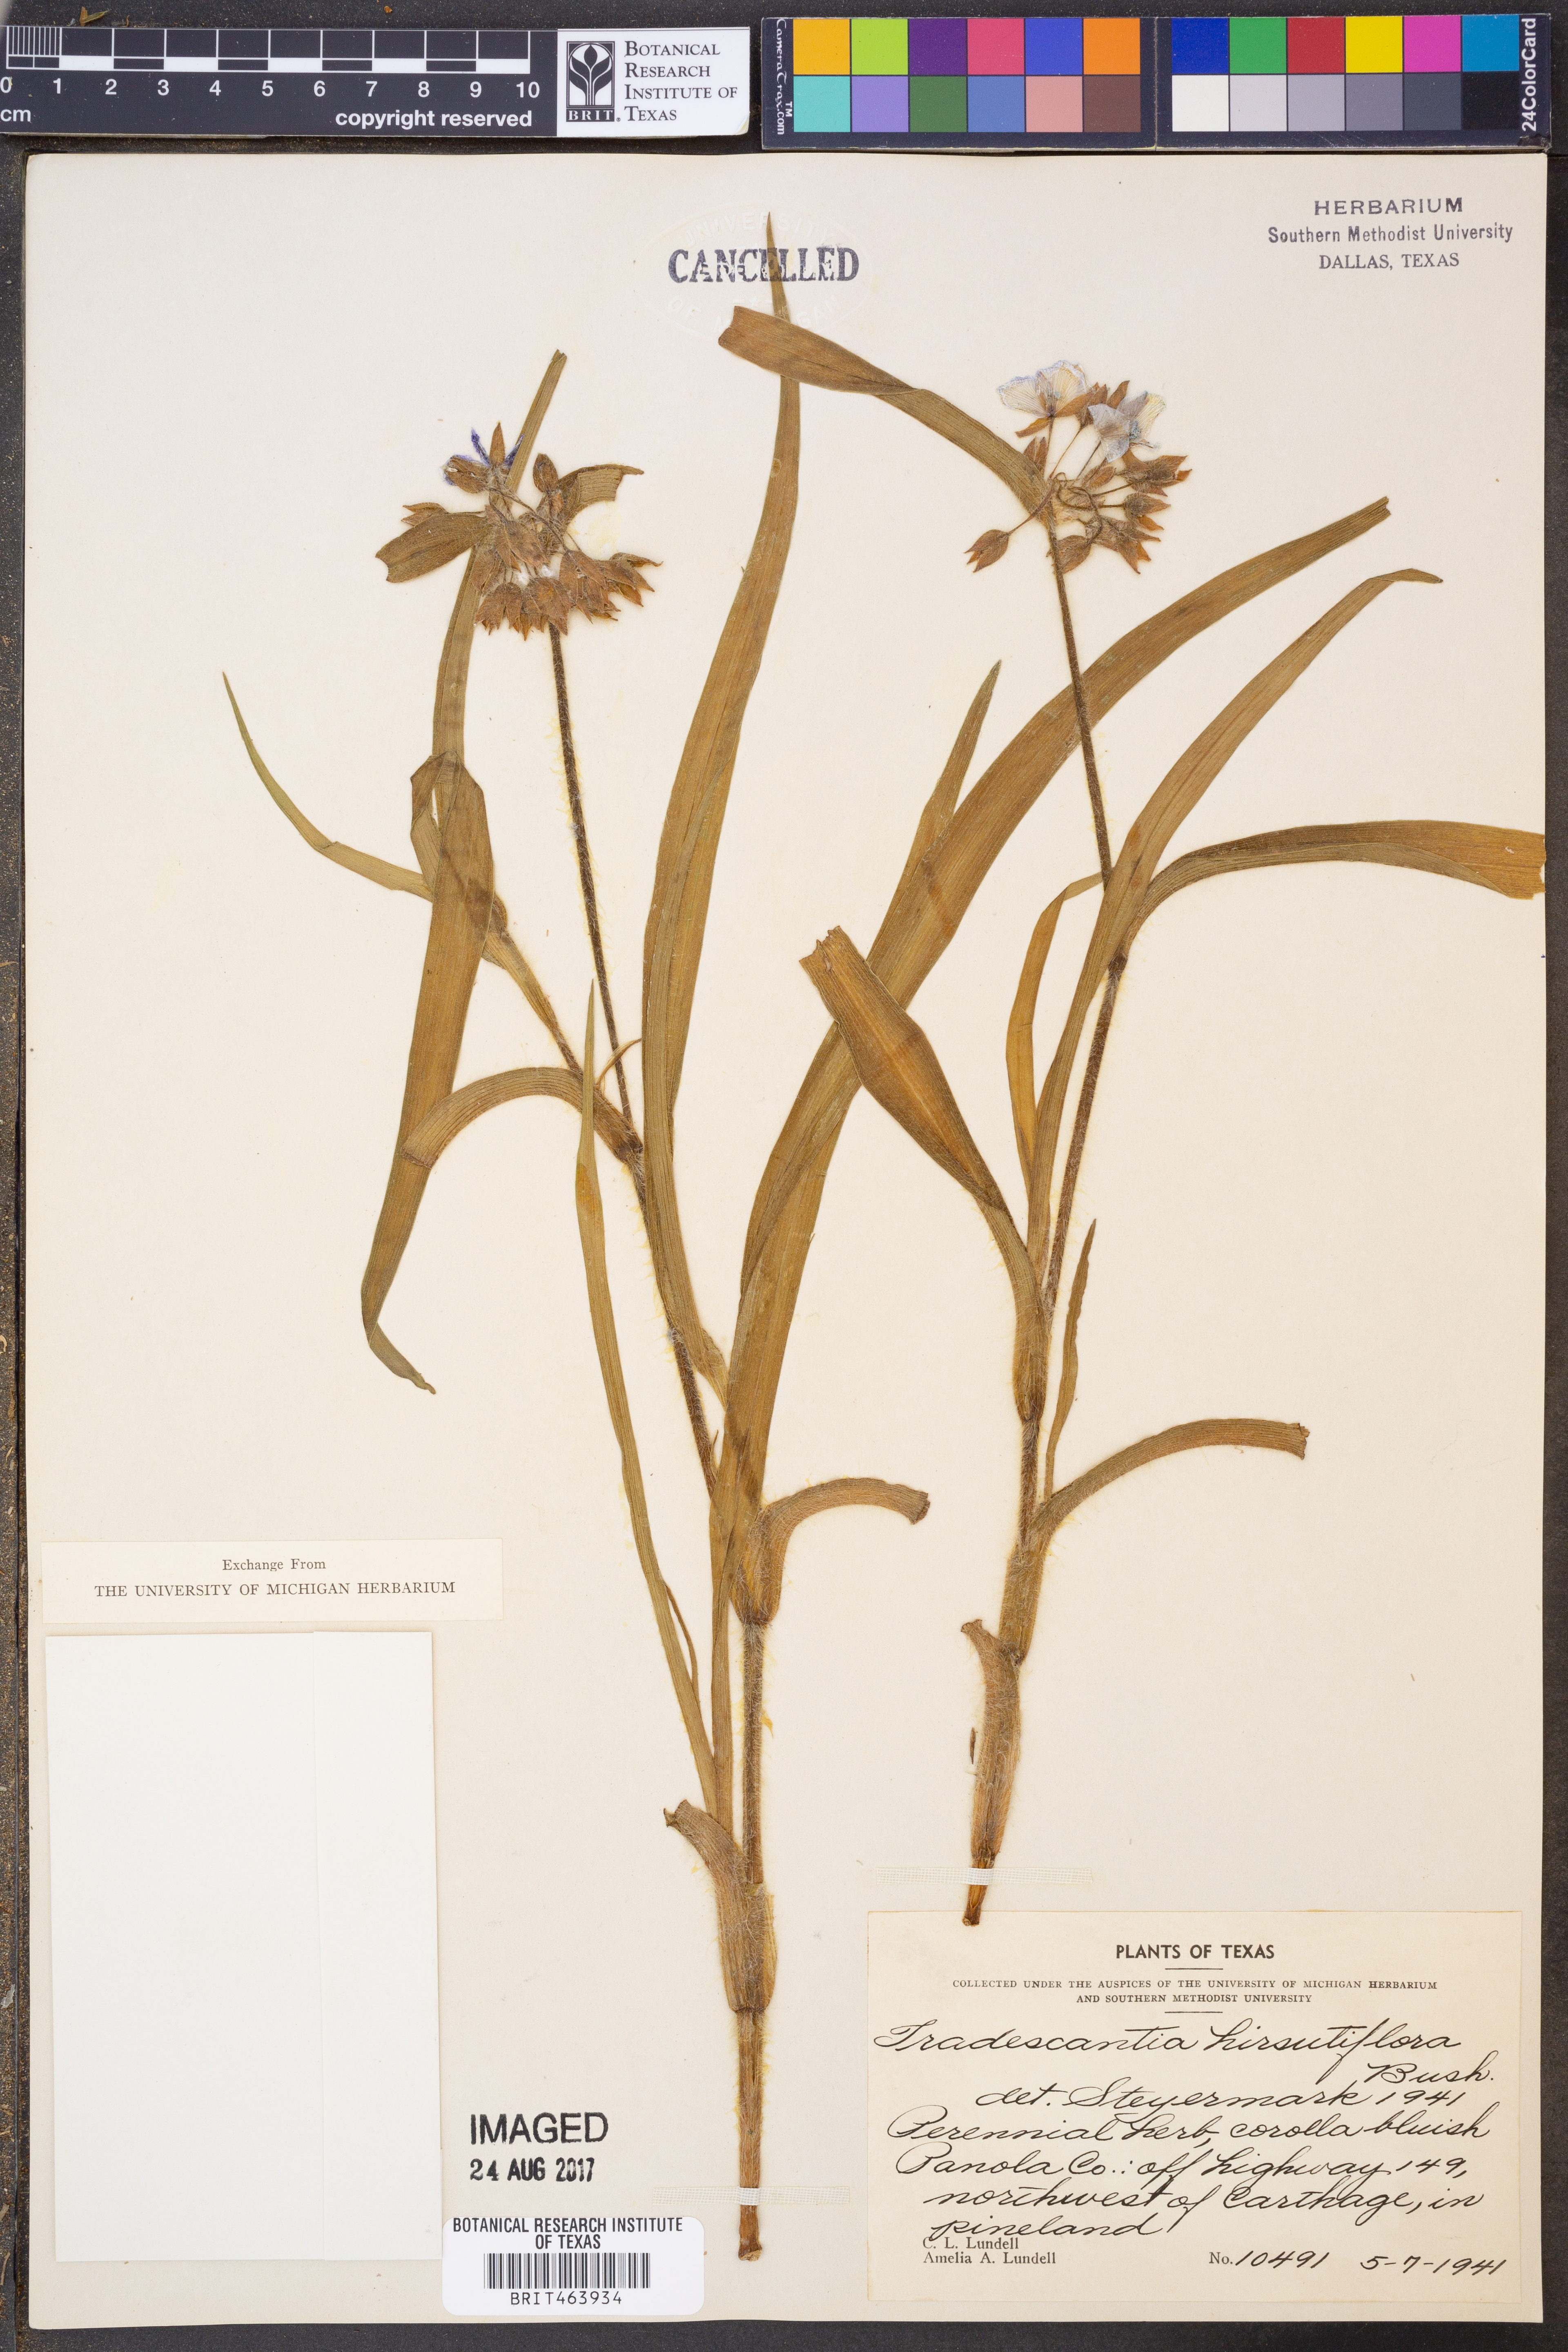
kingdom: Plantae
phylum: Tracheophyta
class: Liliopsida
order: Commelinales
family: Commelinaceae
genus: Tradescantia
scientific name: Tradescantia hirsutiflora
